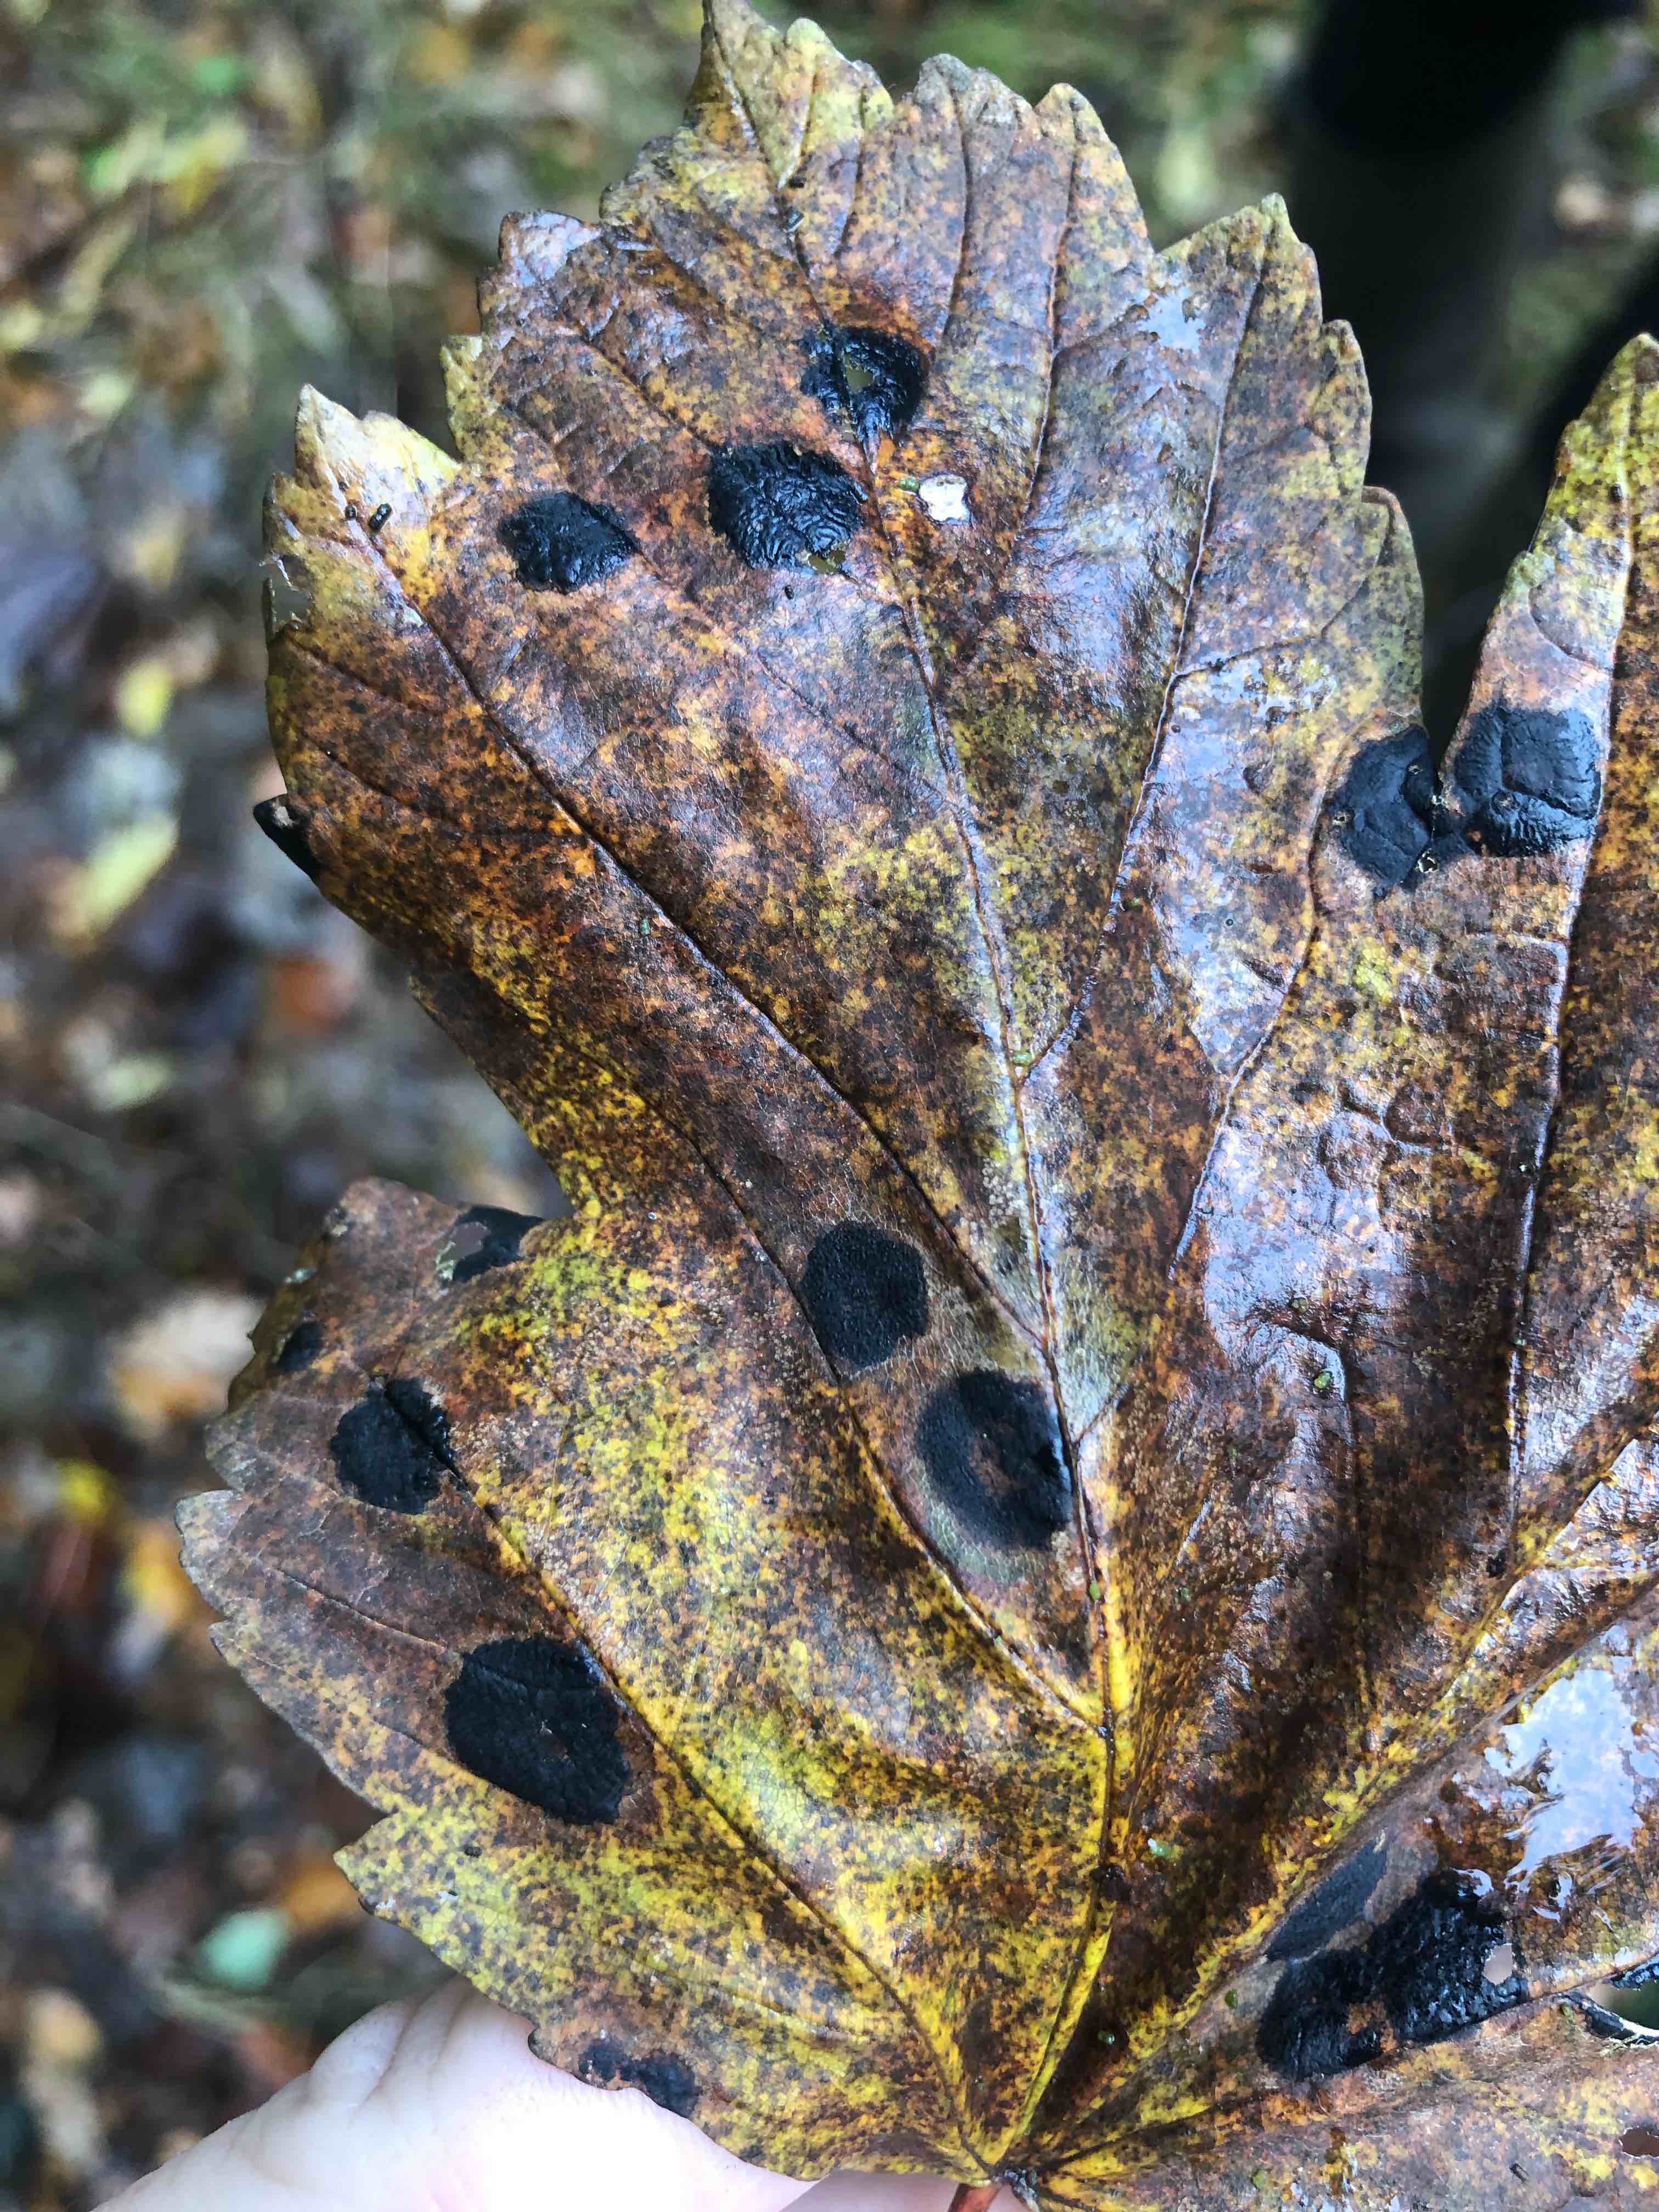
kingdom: Fungi
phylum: Ascomycota
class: Leotiomycetes
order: Rhytismatales
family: Rhytismataceae
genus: Rhytisma
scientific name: Rhytisma acerinum
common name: ahorn-rynkeplet
